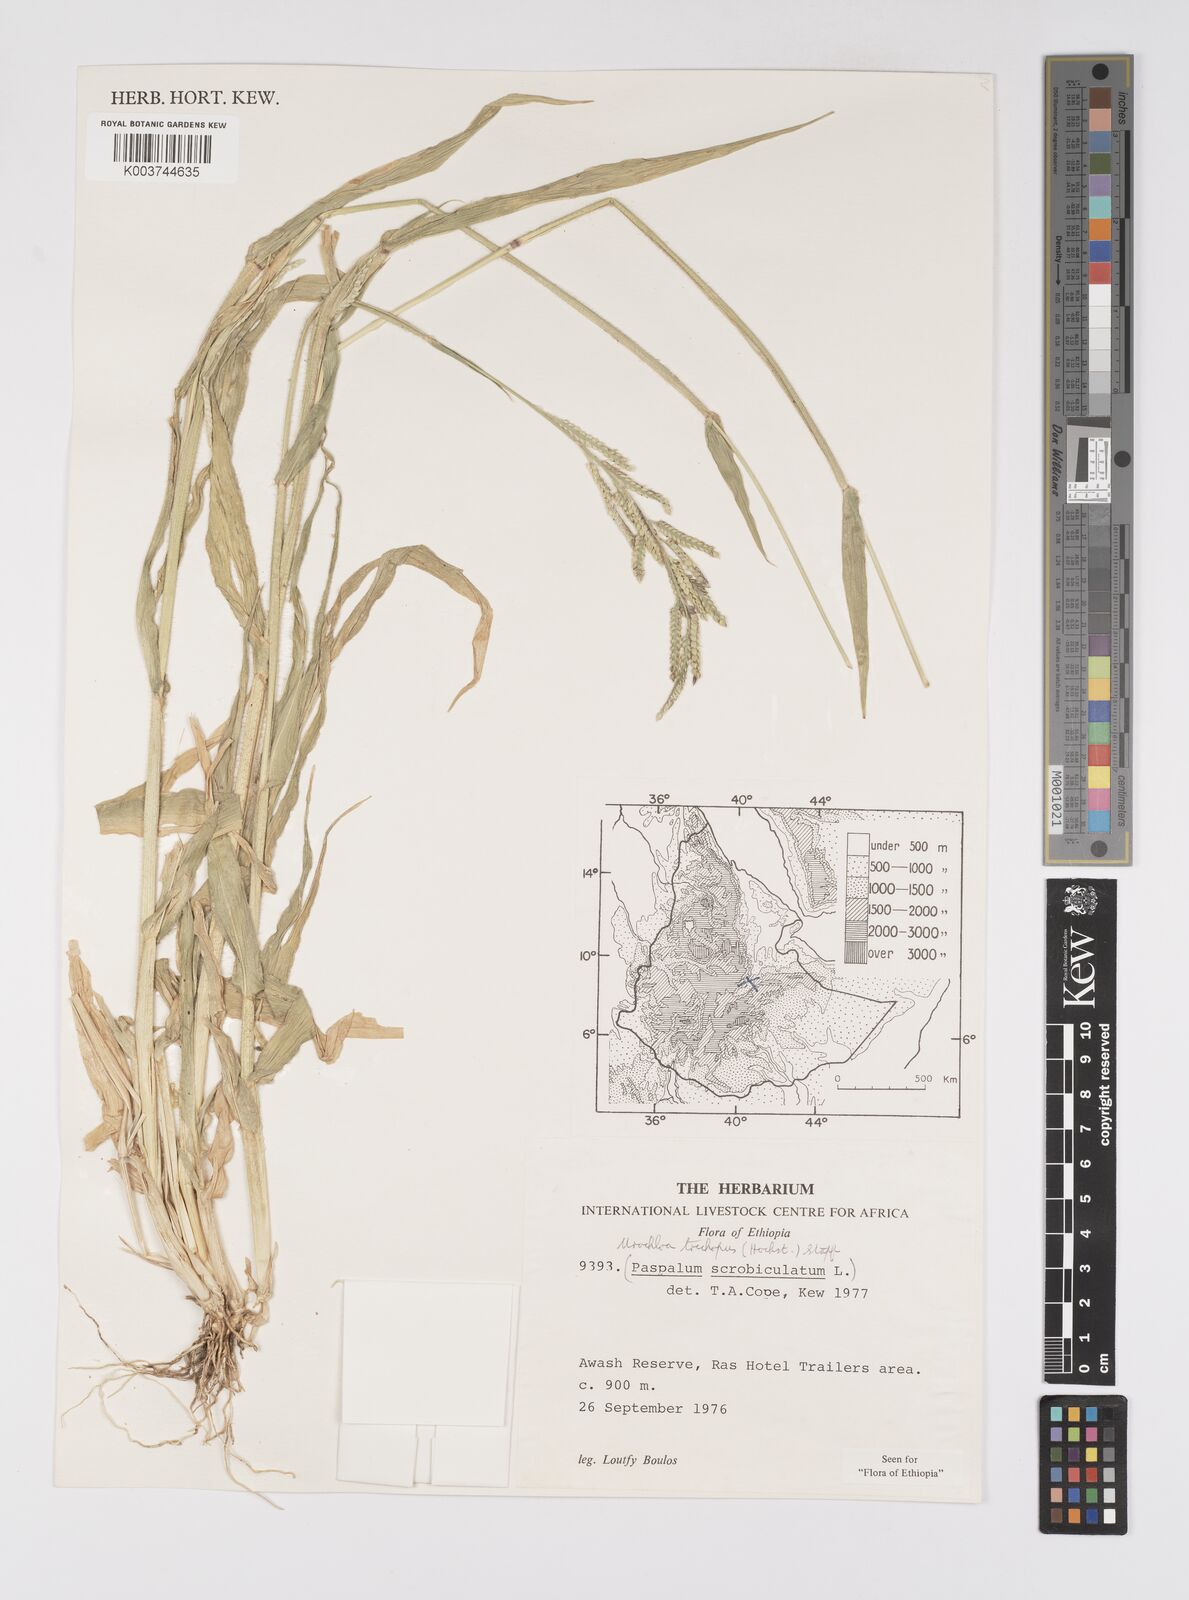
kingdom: Plantae
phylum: Tracheophyta
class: Liliopsida
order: Poales
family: Poaceae
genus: Urochloa
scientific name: Urochloa trichopus
